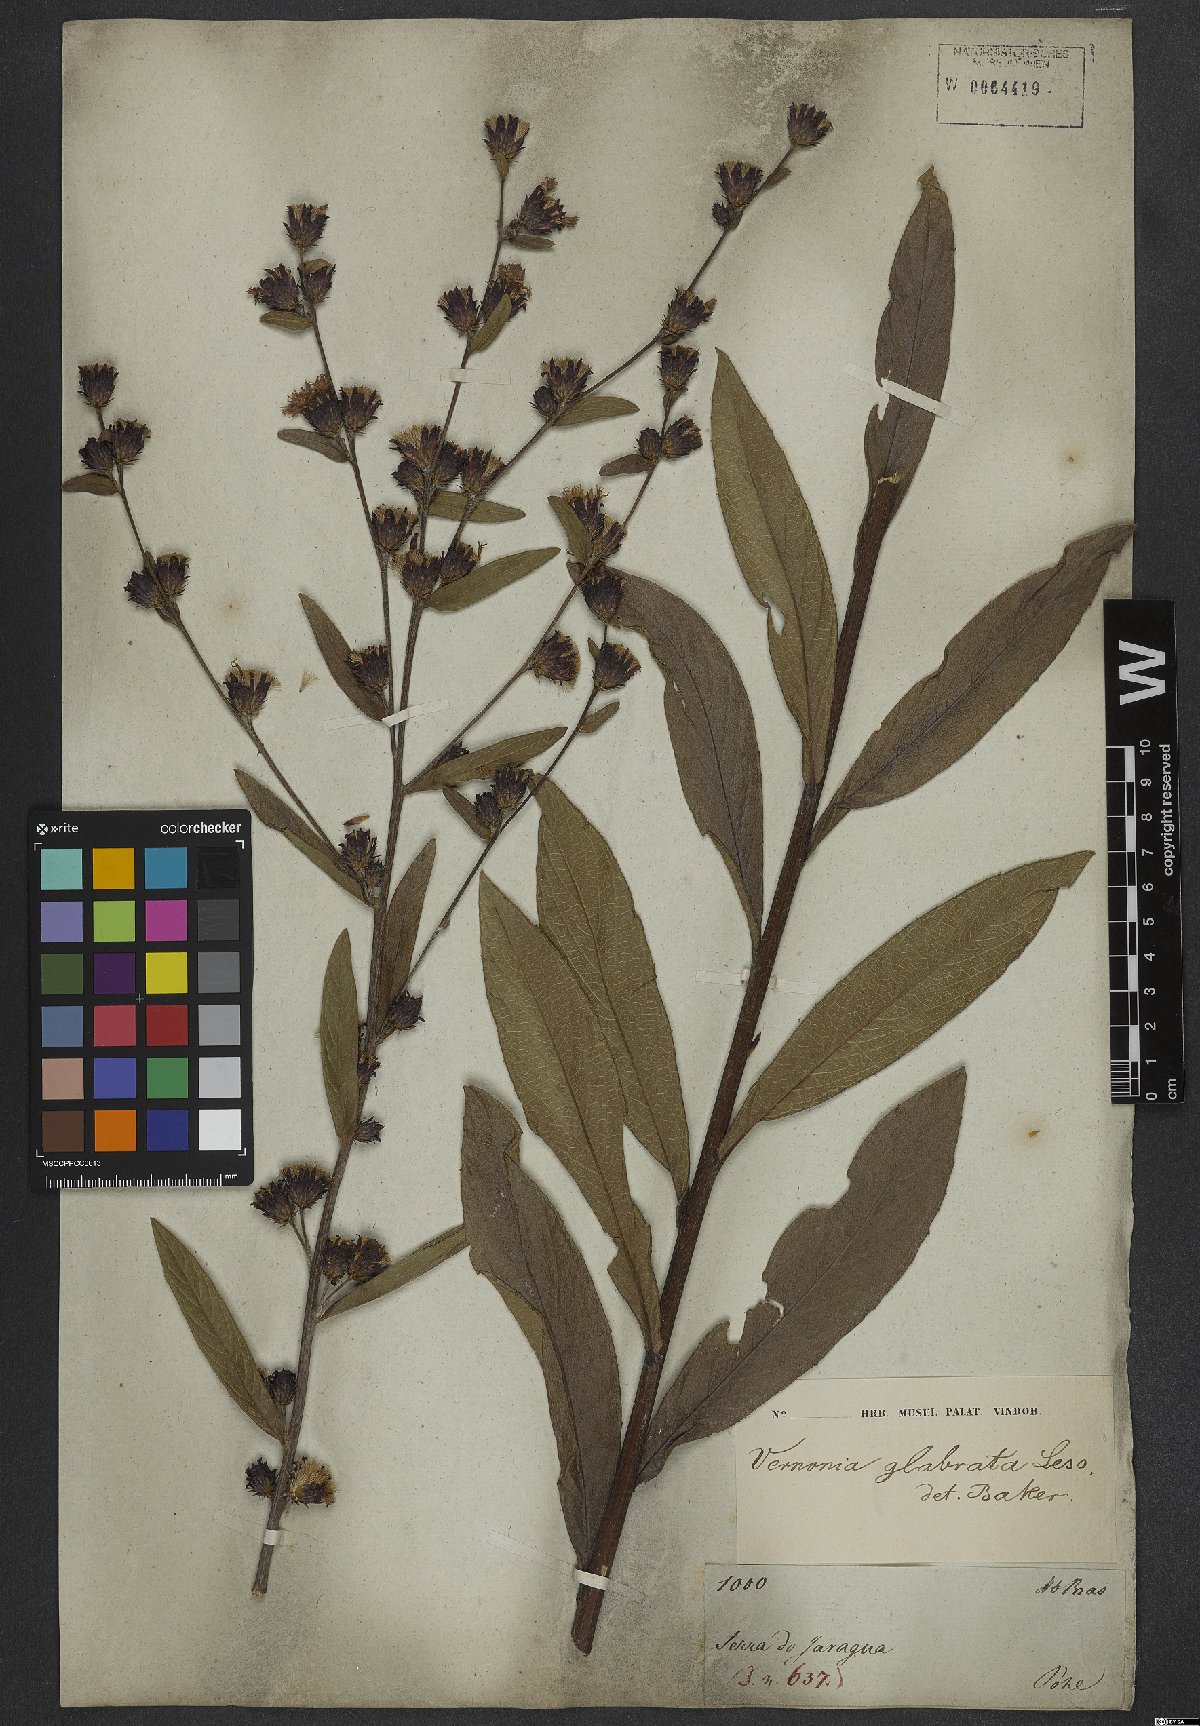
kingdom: Plantae
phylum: Tracheophyta
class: Magnoliopsida
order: Asterales
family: Asteraceae
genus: Lessingianthus
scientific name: Lessingianthus glabratus
